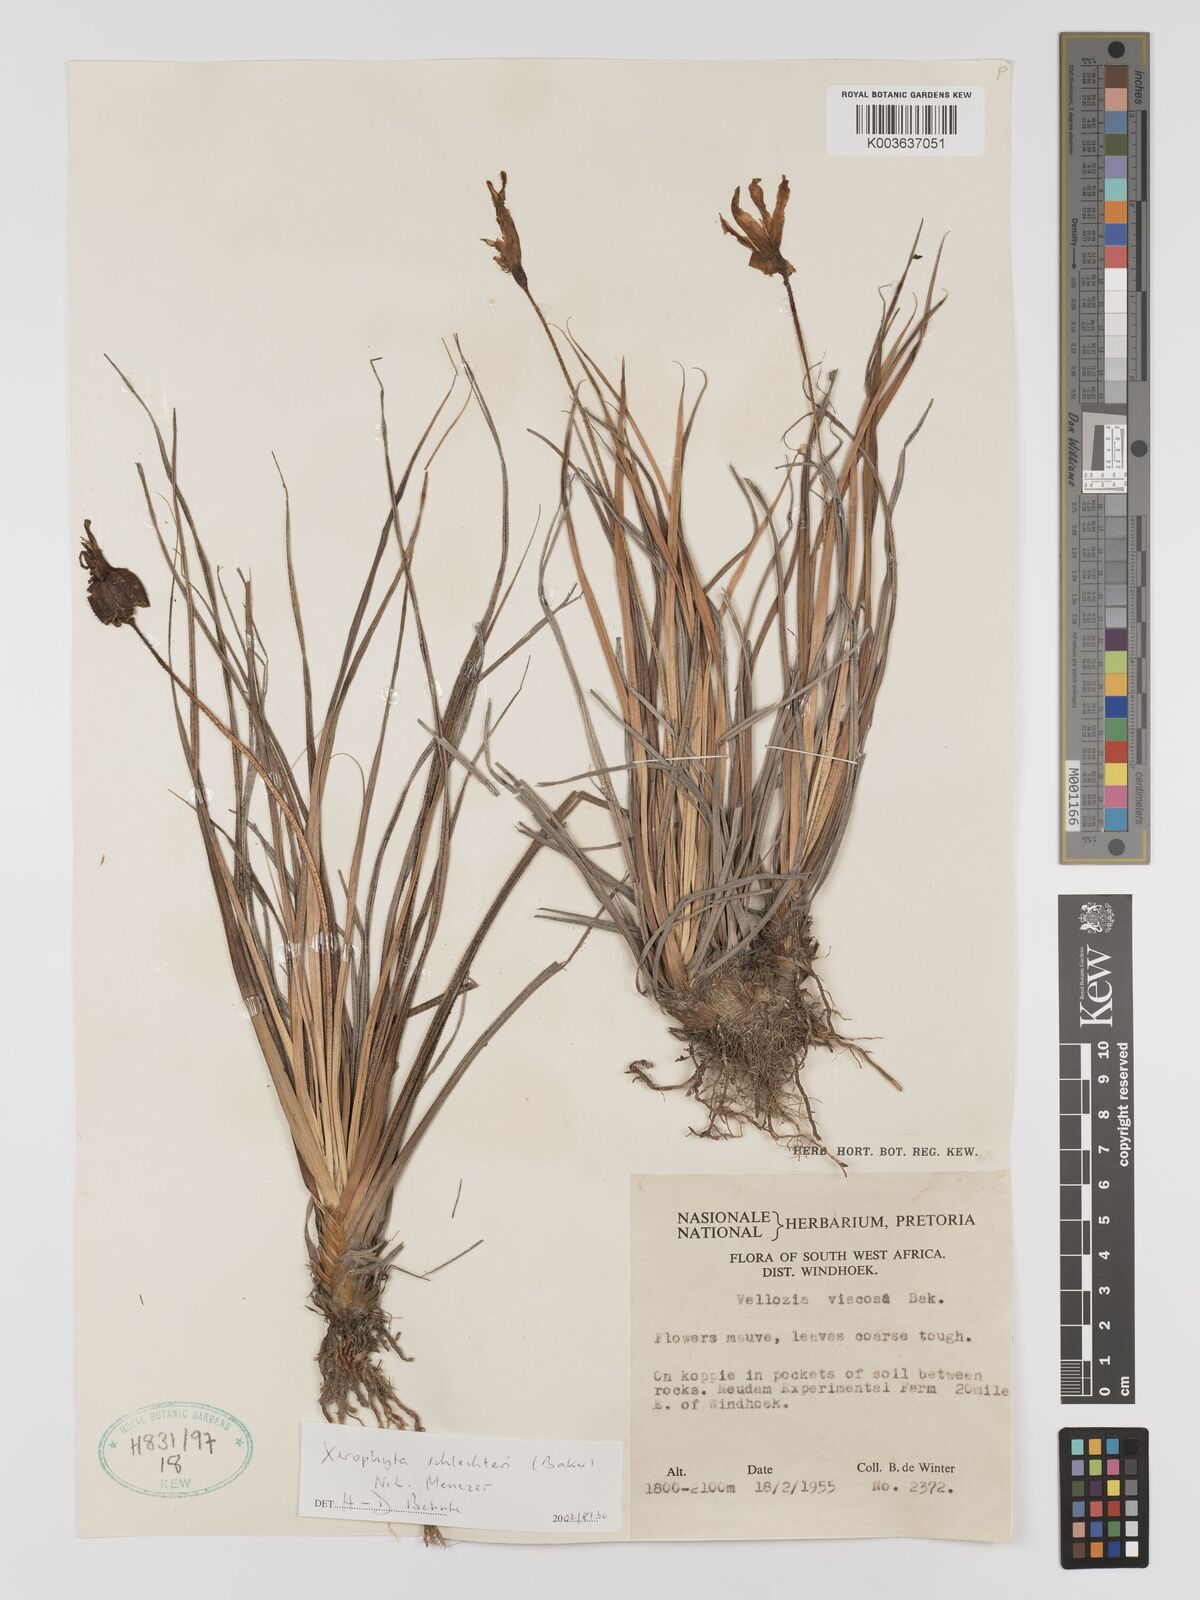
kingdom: Plantae
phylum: Tracheophyta
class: Liliopsida
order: Pandanales
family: Velloziaceae
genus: Xerophyta
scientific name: Xerophyta schlechteri
